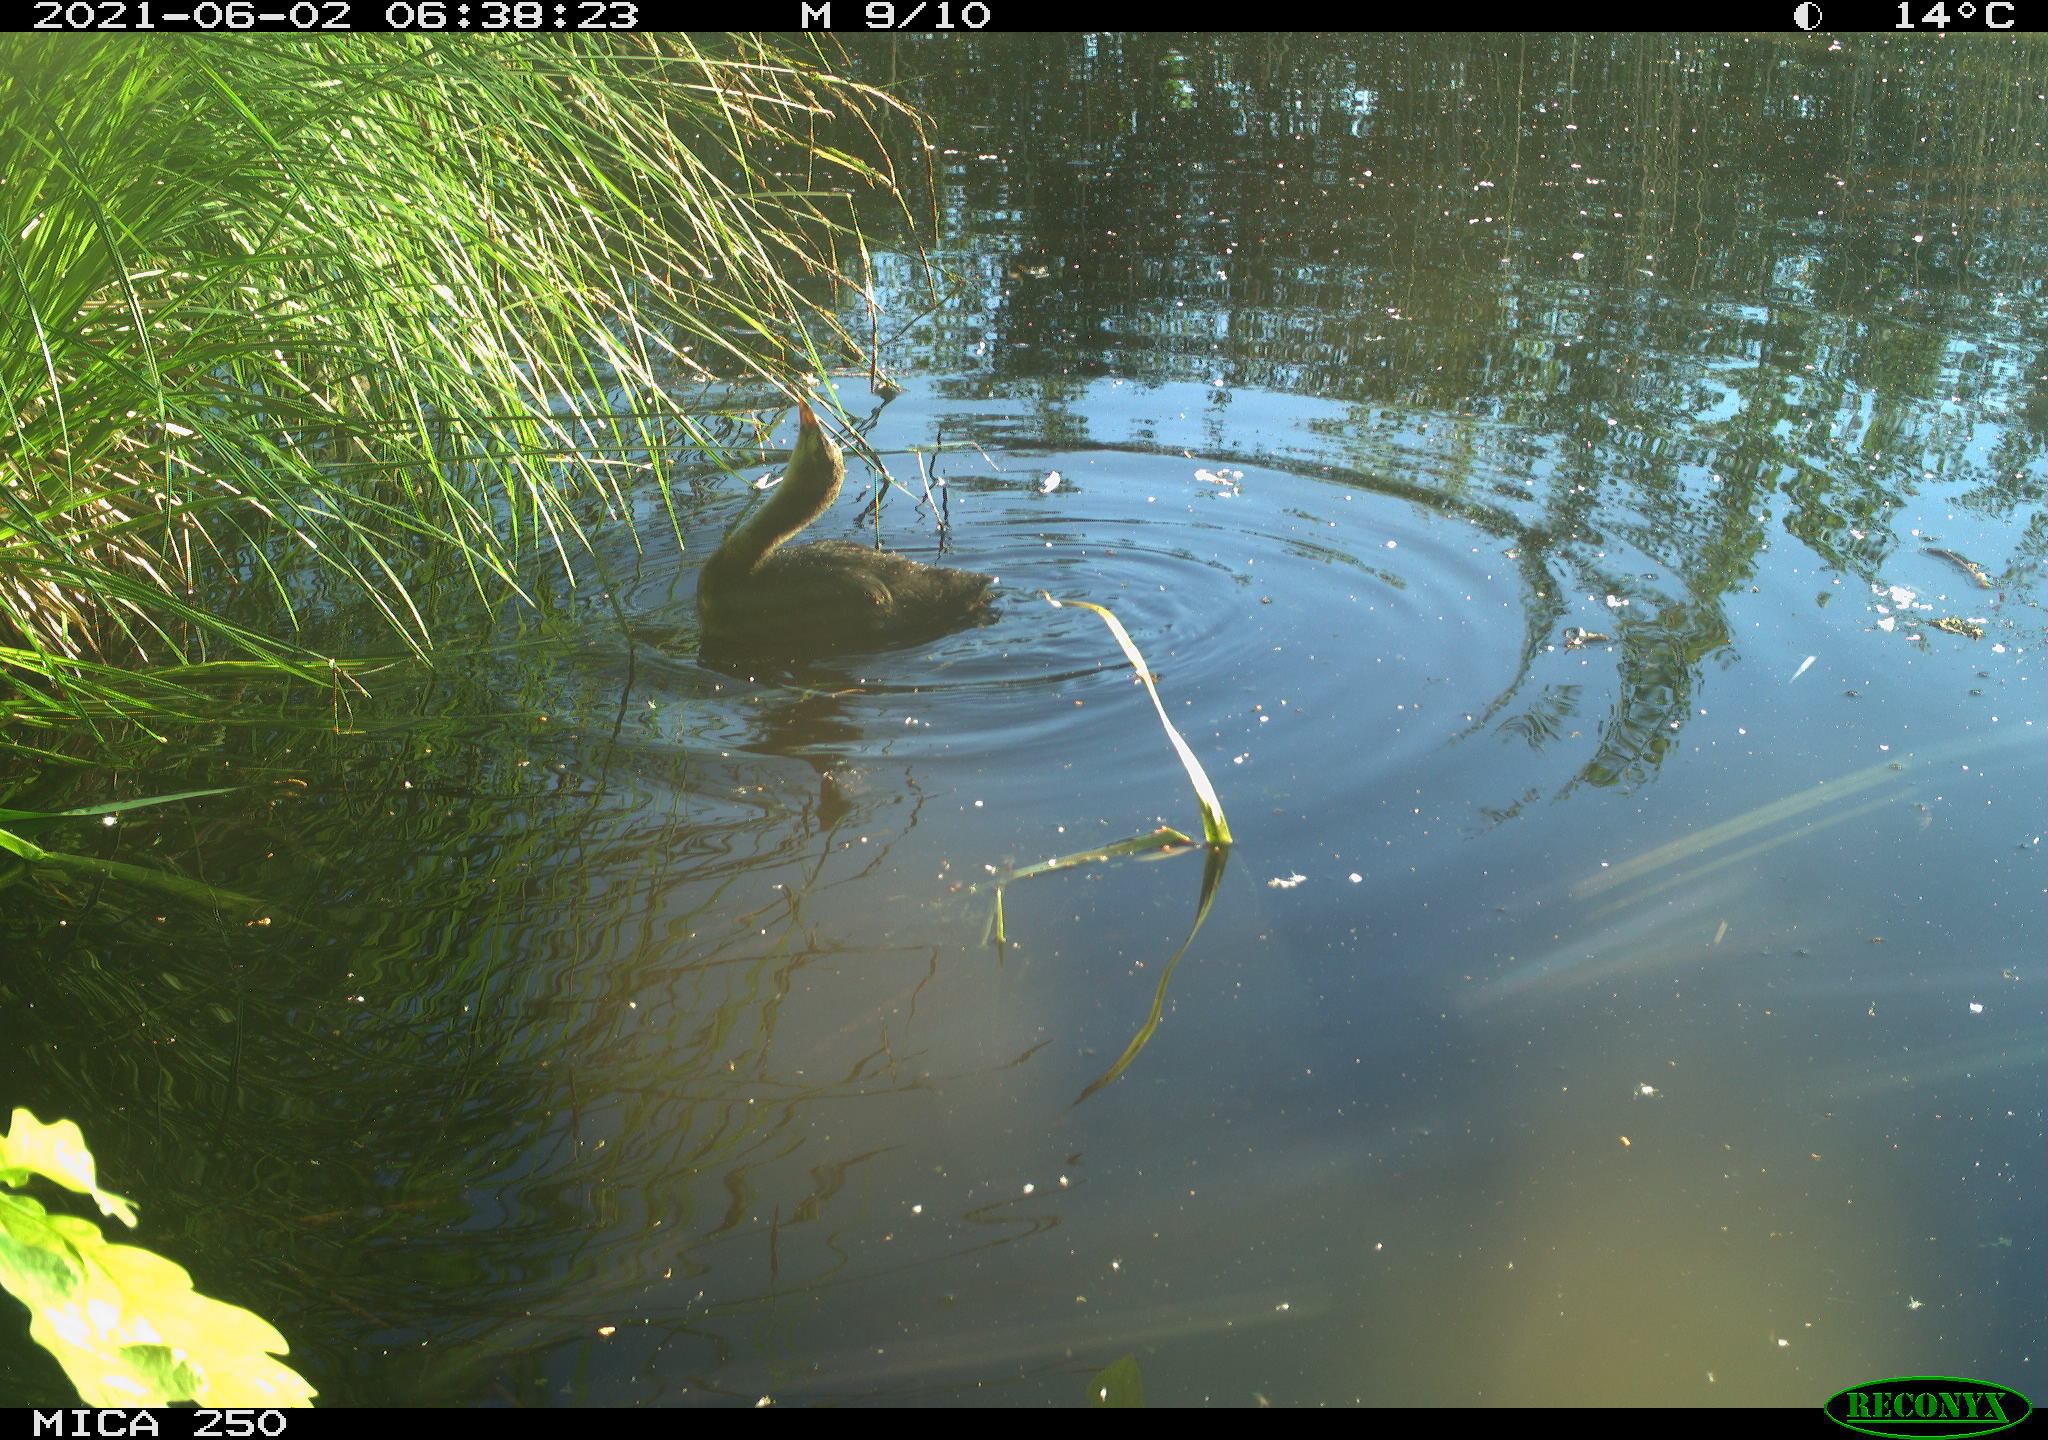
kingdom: Animalia
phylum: Chordata
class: Aves
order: Anseriformes
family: Anatidae
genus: Mareca
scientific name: Mareca strepera
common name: Gadwall
